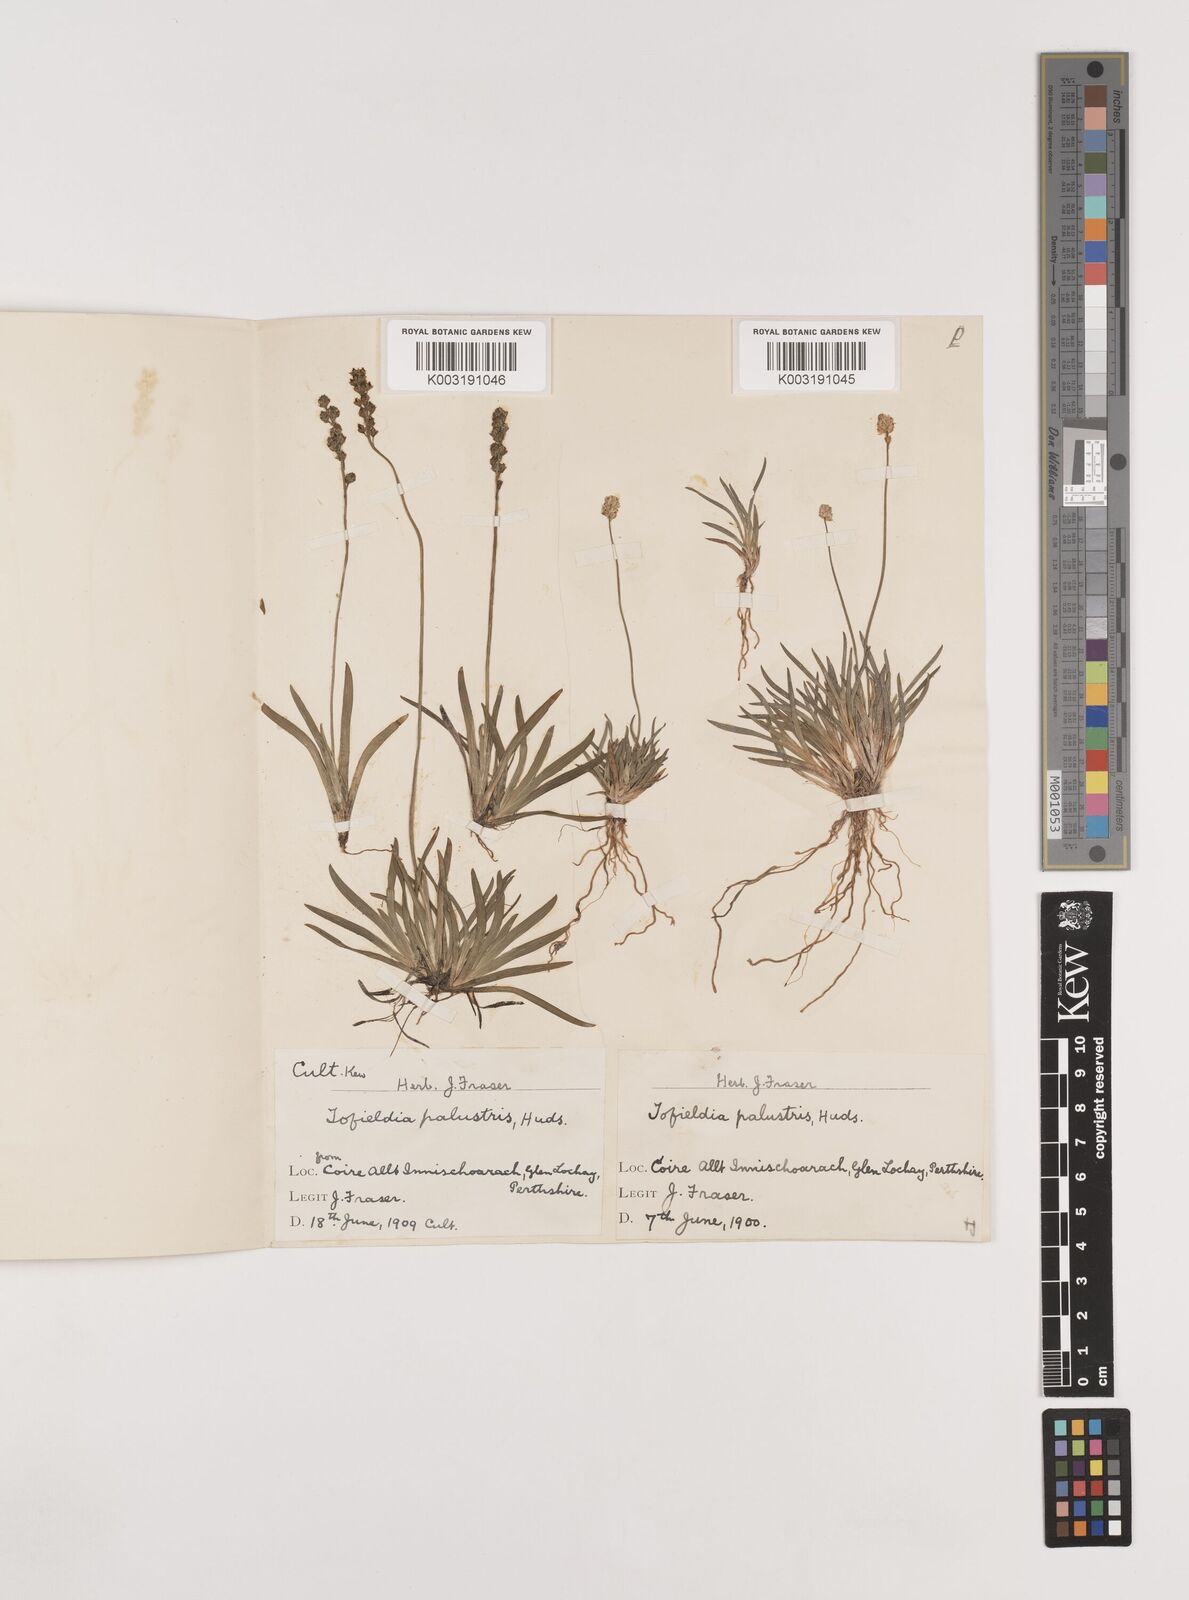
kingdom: Plantae
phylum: Tracheophyta
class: Liliopsida
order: Alismatales
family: Tofieldiaceae
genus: Tofieldia
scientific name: Tofieldia pusilla
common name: Scottish false asphodel
